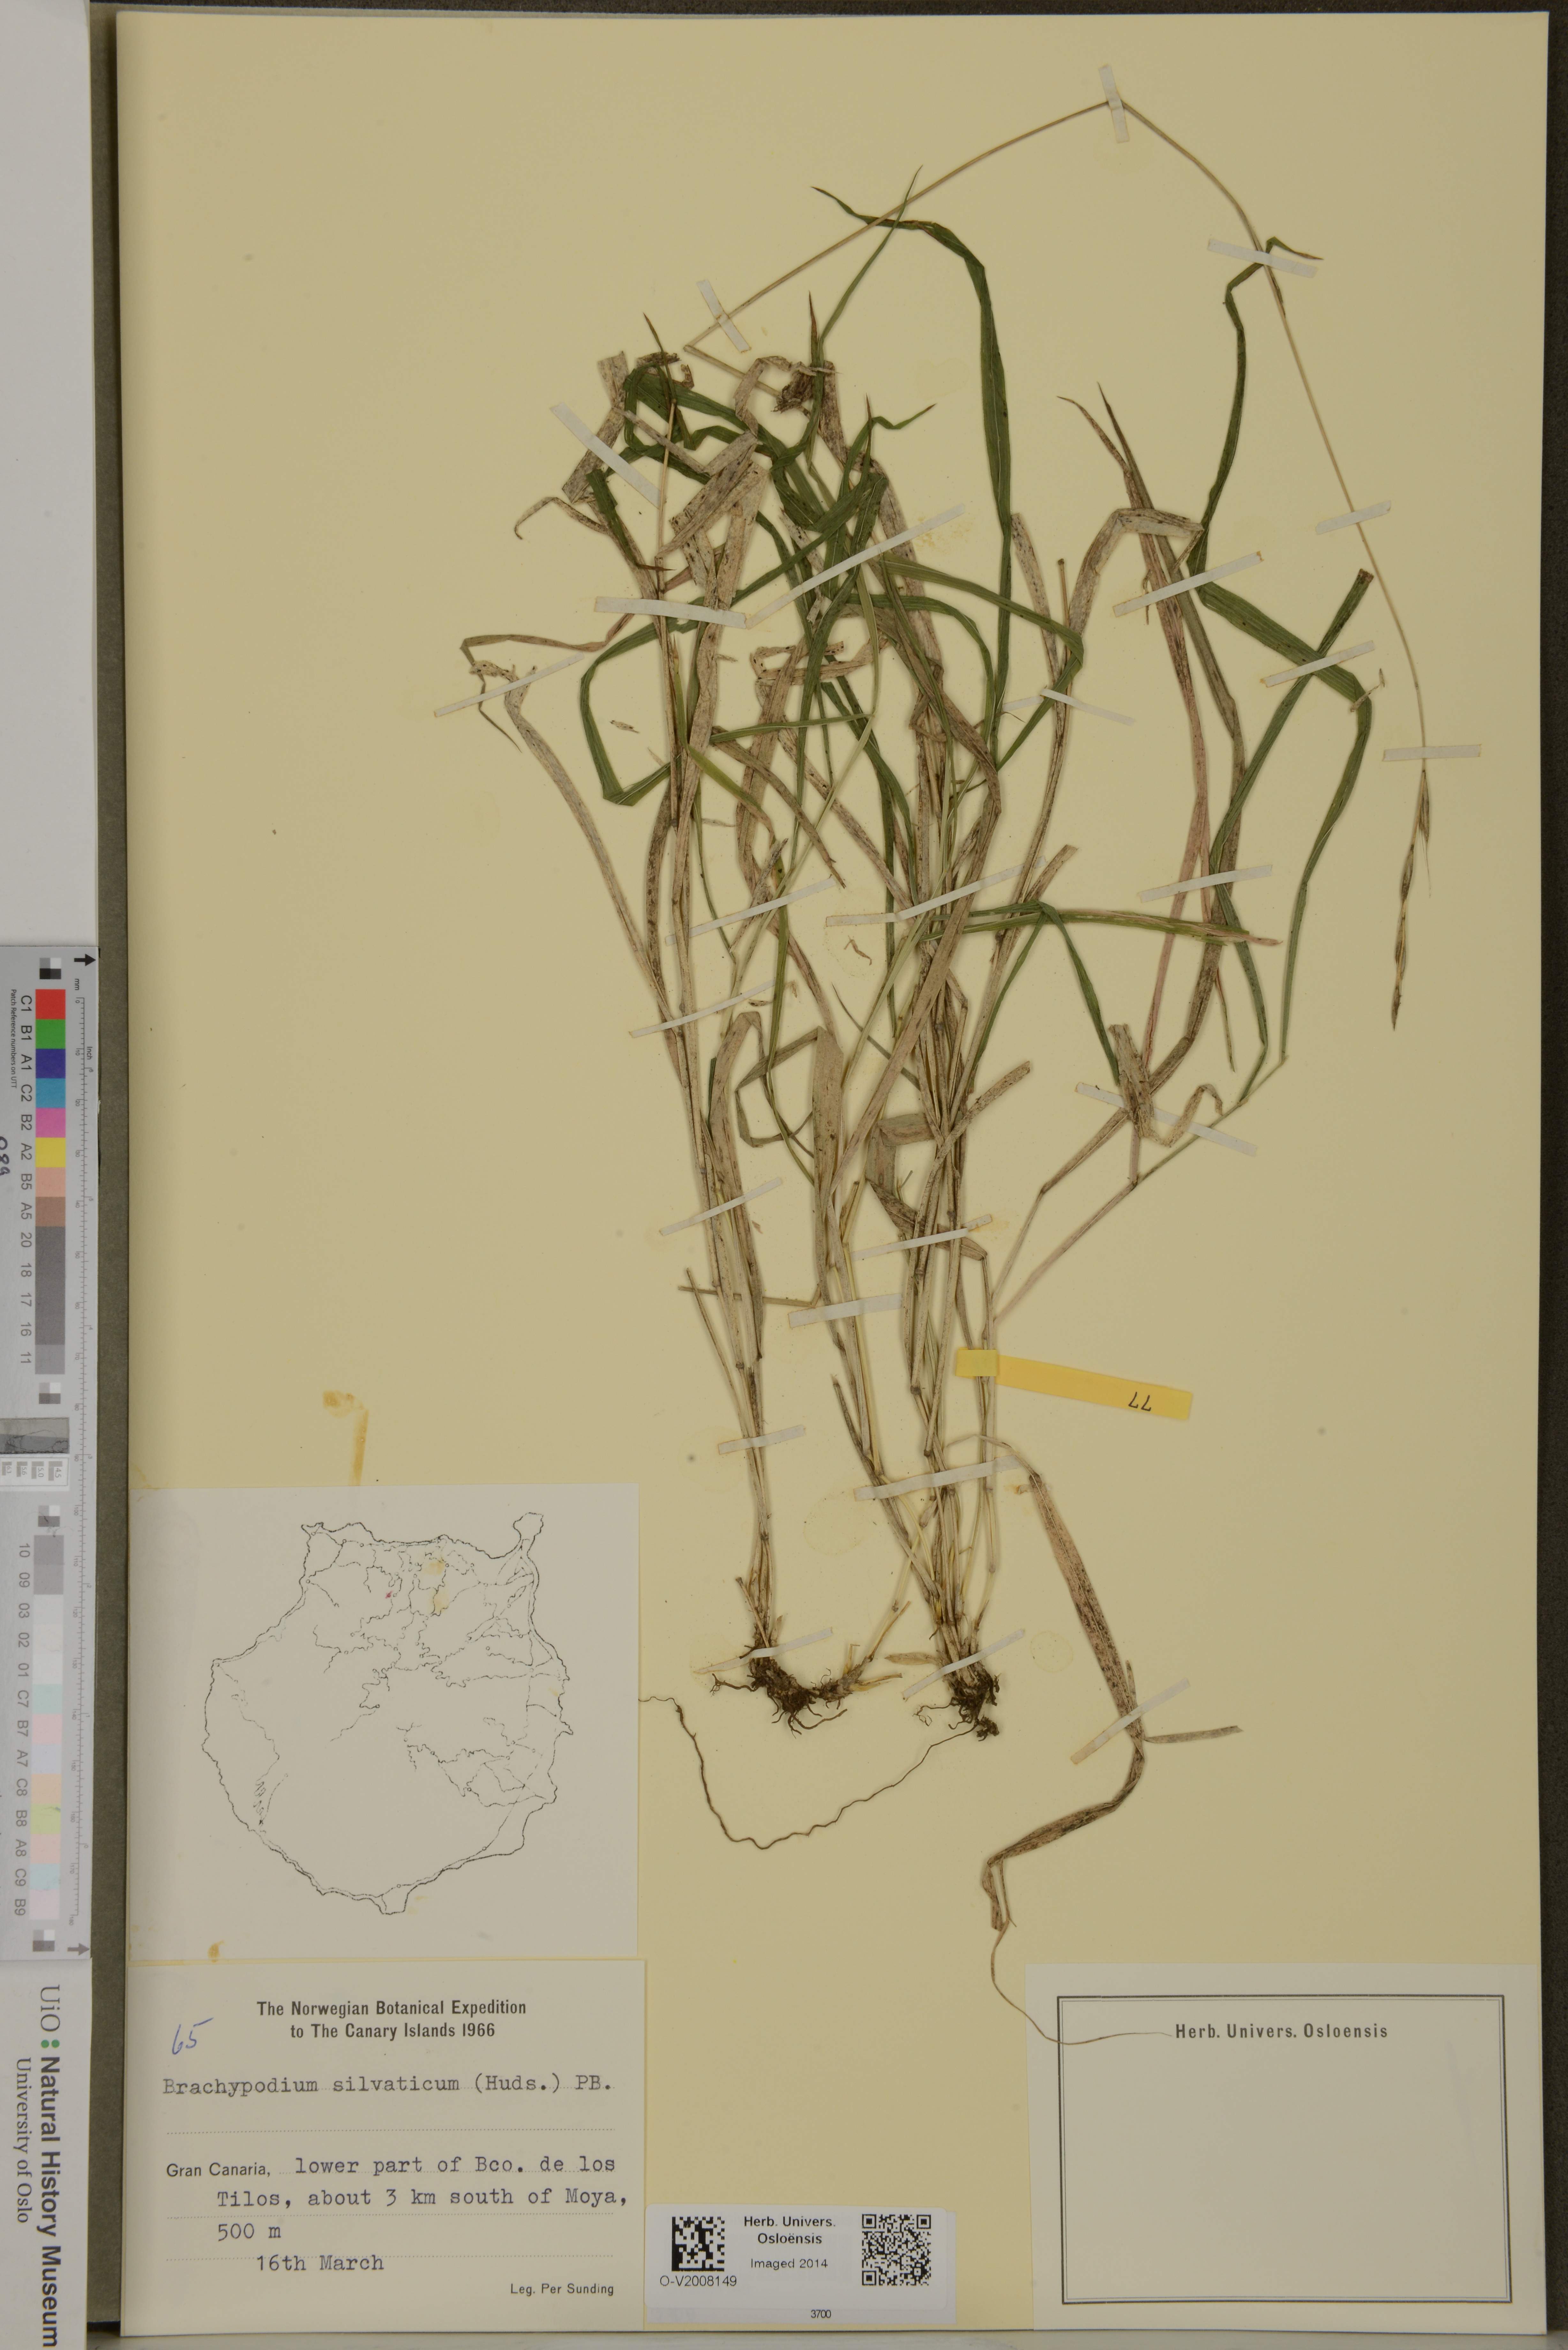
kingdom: Plantae
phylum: Tracheophyta
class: Liliopsida
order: Poales
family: Poaceae
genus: Brachypodium
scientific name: Brachypodium sylvaticum
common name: False-brome
